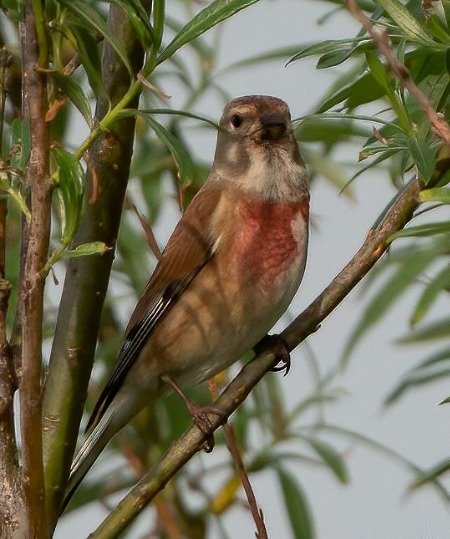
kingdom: Animalia
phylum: Chordata
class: Aves
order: Passeriformes
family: Fringillidae
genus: Linaria
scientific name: Linaria cannabina
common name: Tornirisk
